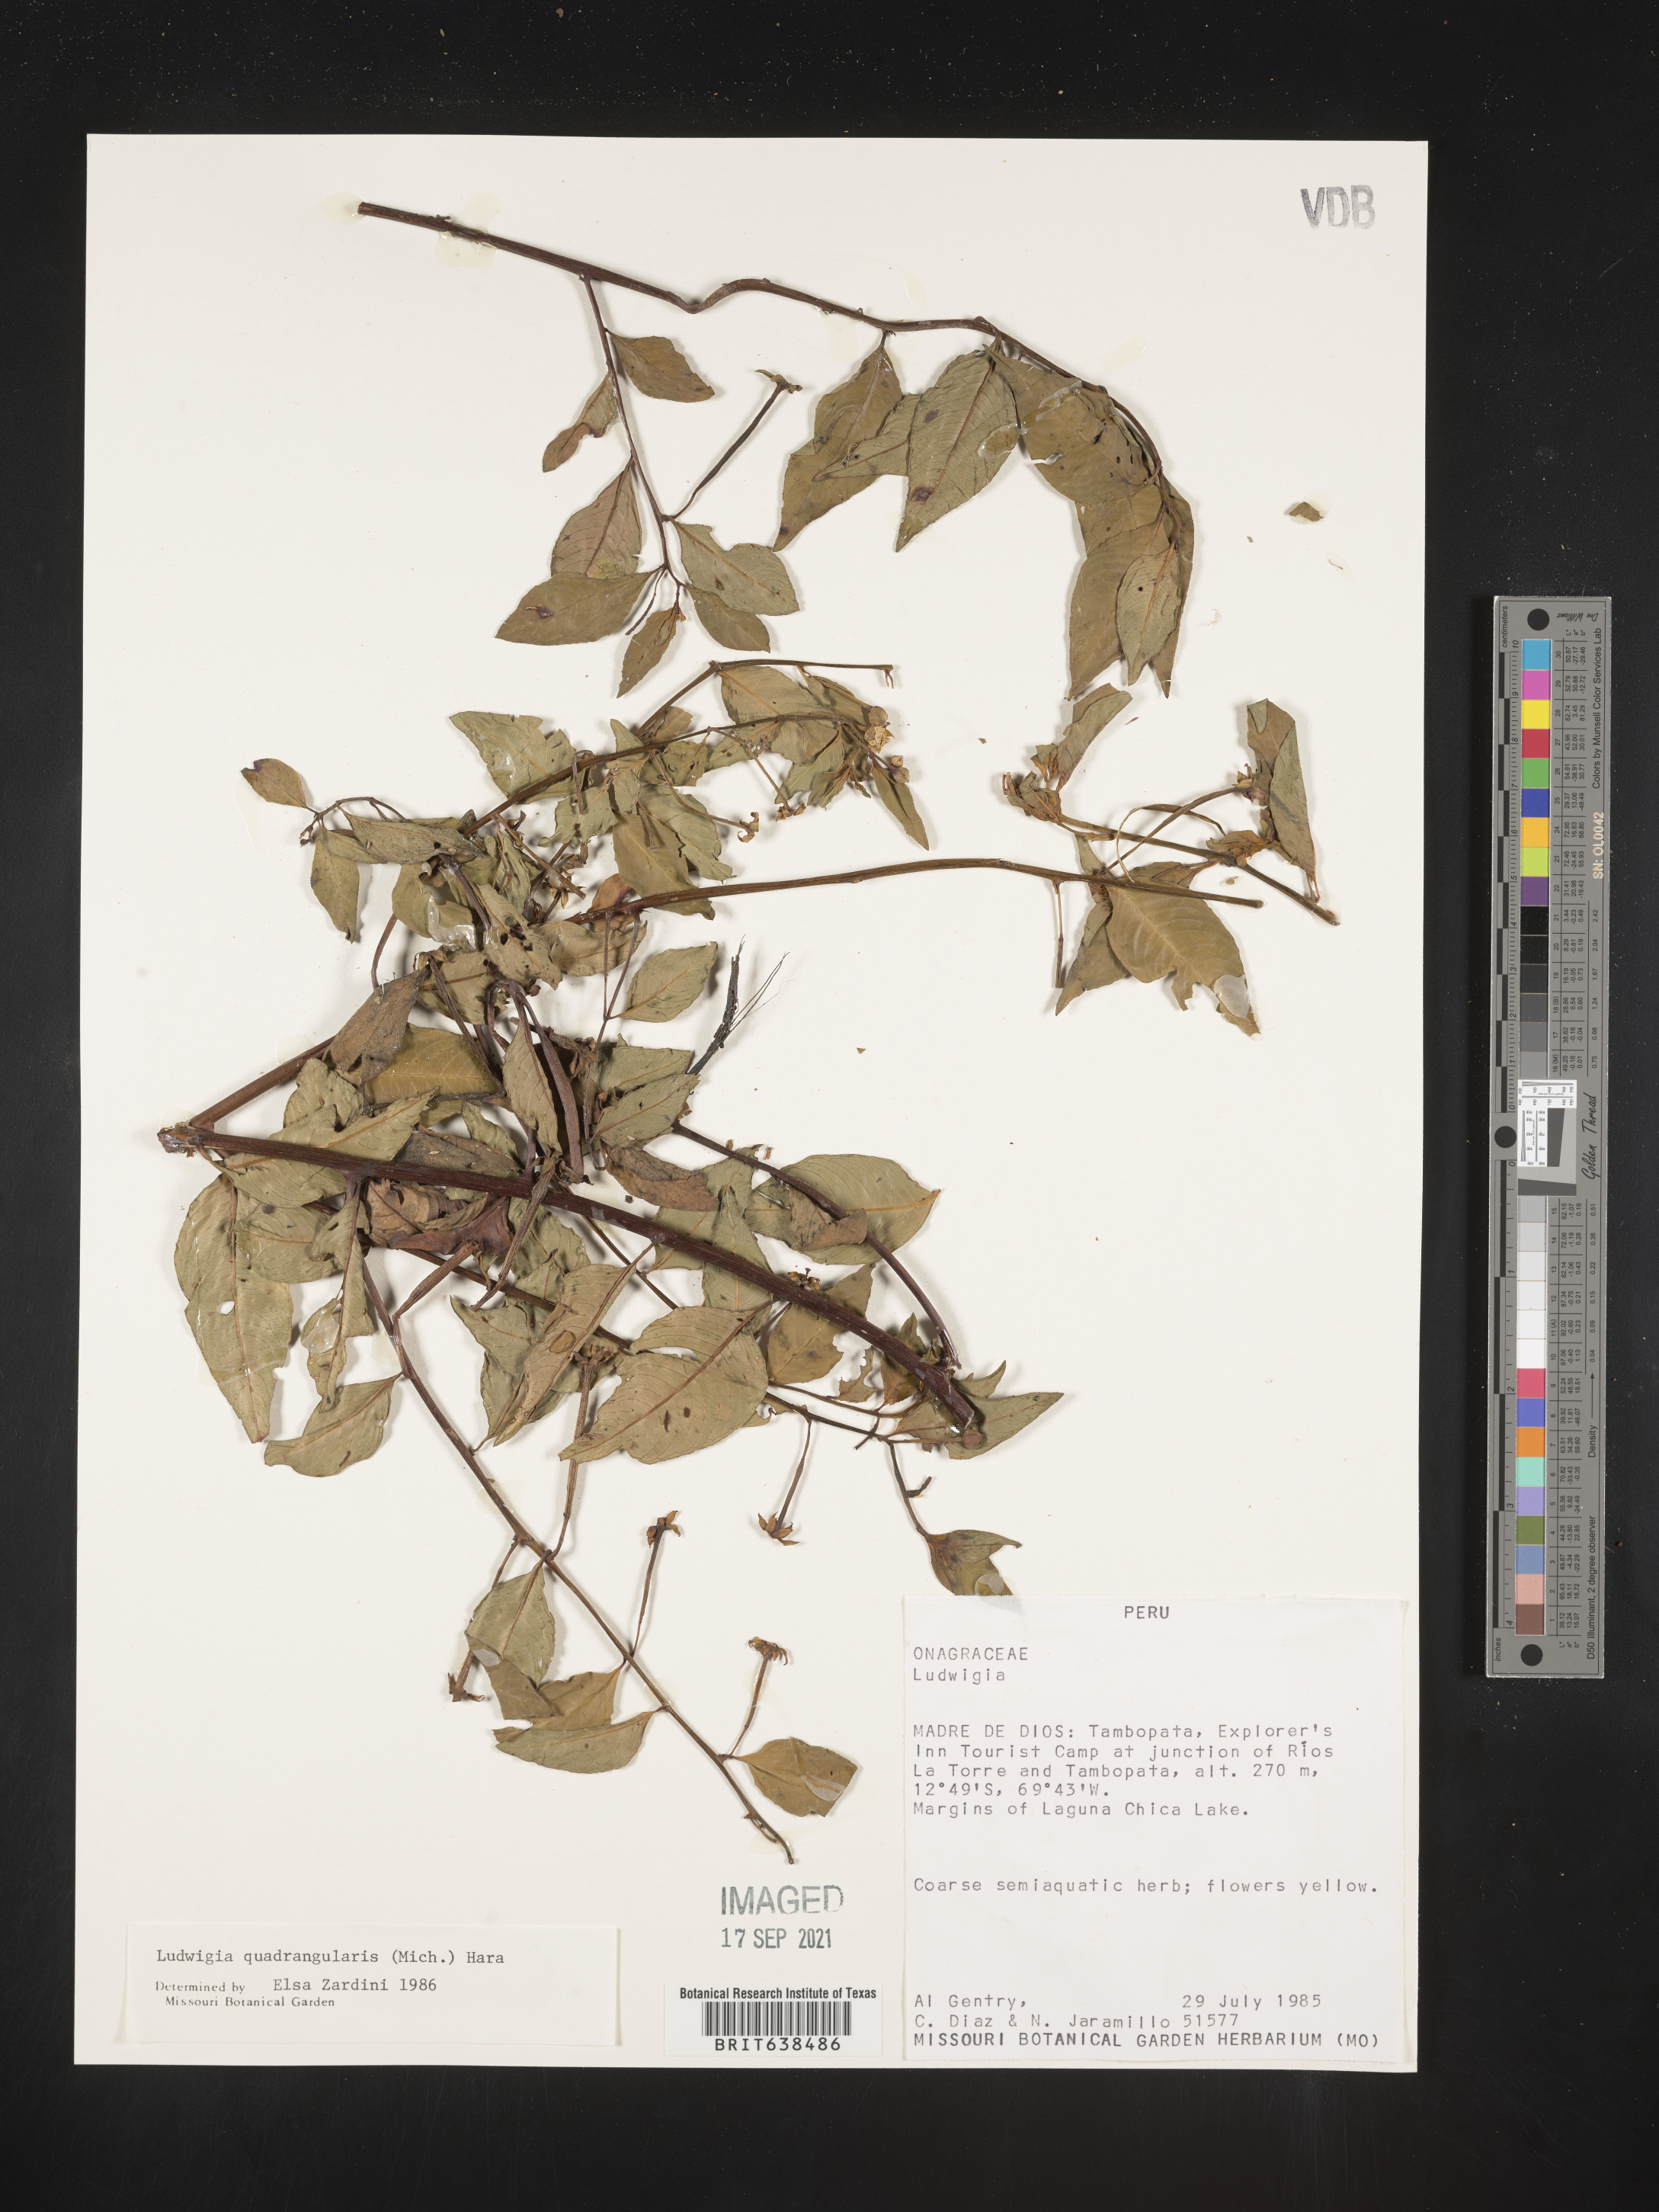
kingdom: Plantae
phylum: Tracheophyta
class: Magnoliopsida
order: Myrtales
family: Onagraceae
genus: Ludwigia
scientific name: Ludwigia
